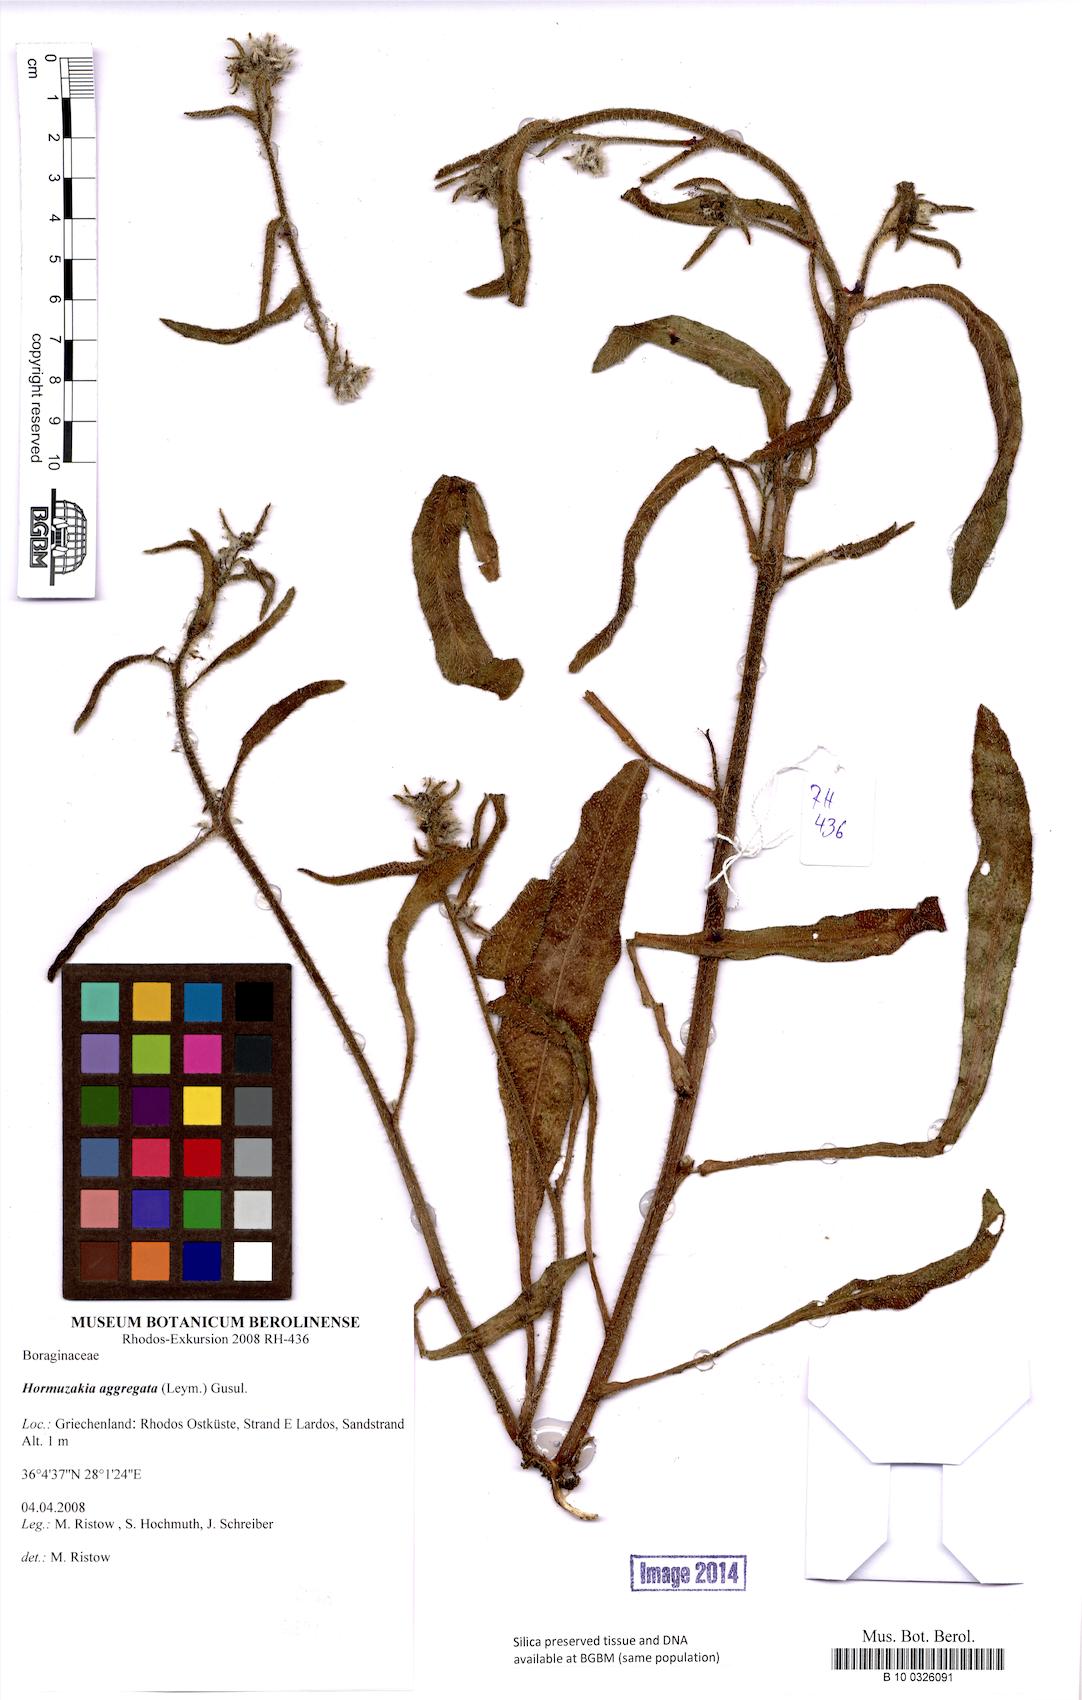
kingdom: Plantae
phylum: Tracheophyta
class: Magnoliopsida
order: Boraginales
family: Boraginaceae
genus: Hormuzakia
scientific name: Hormuzakia aggregata
